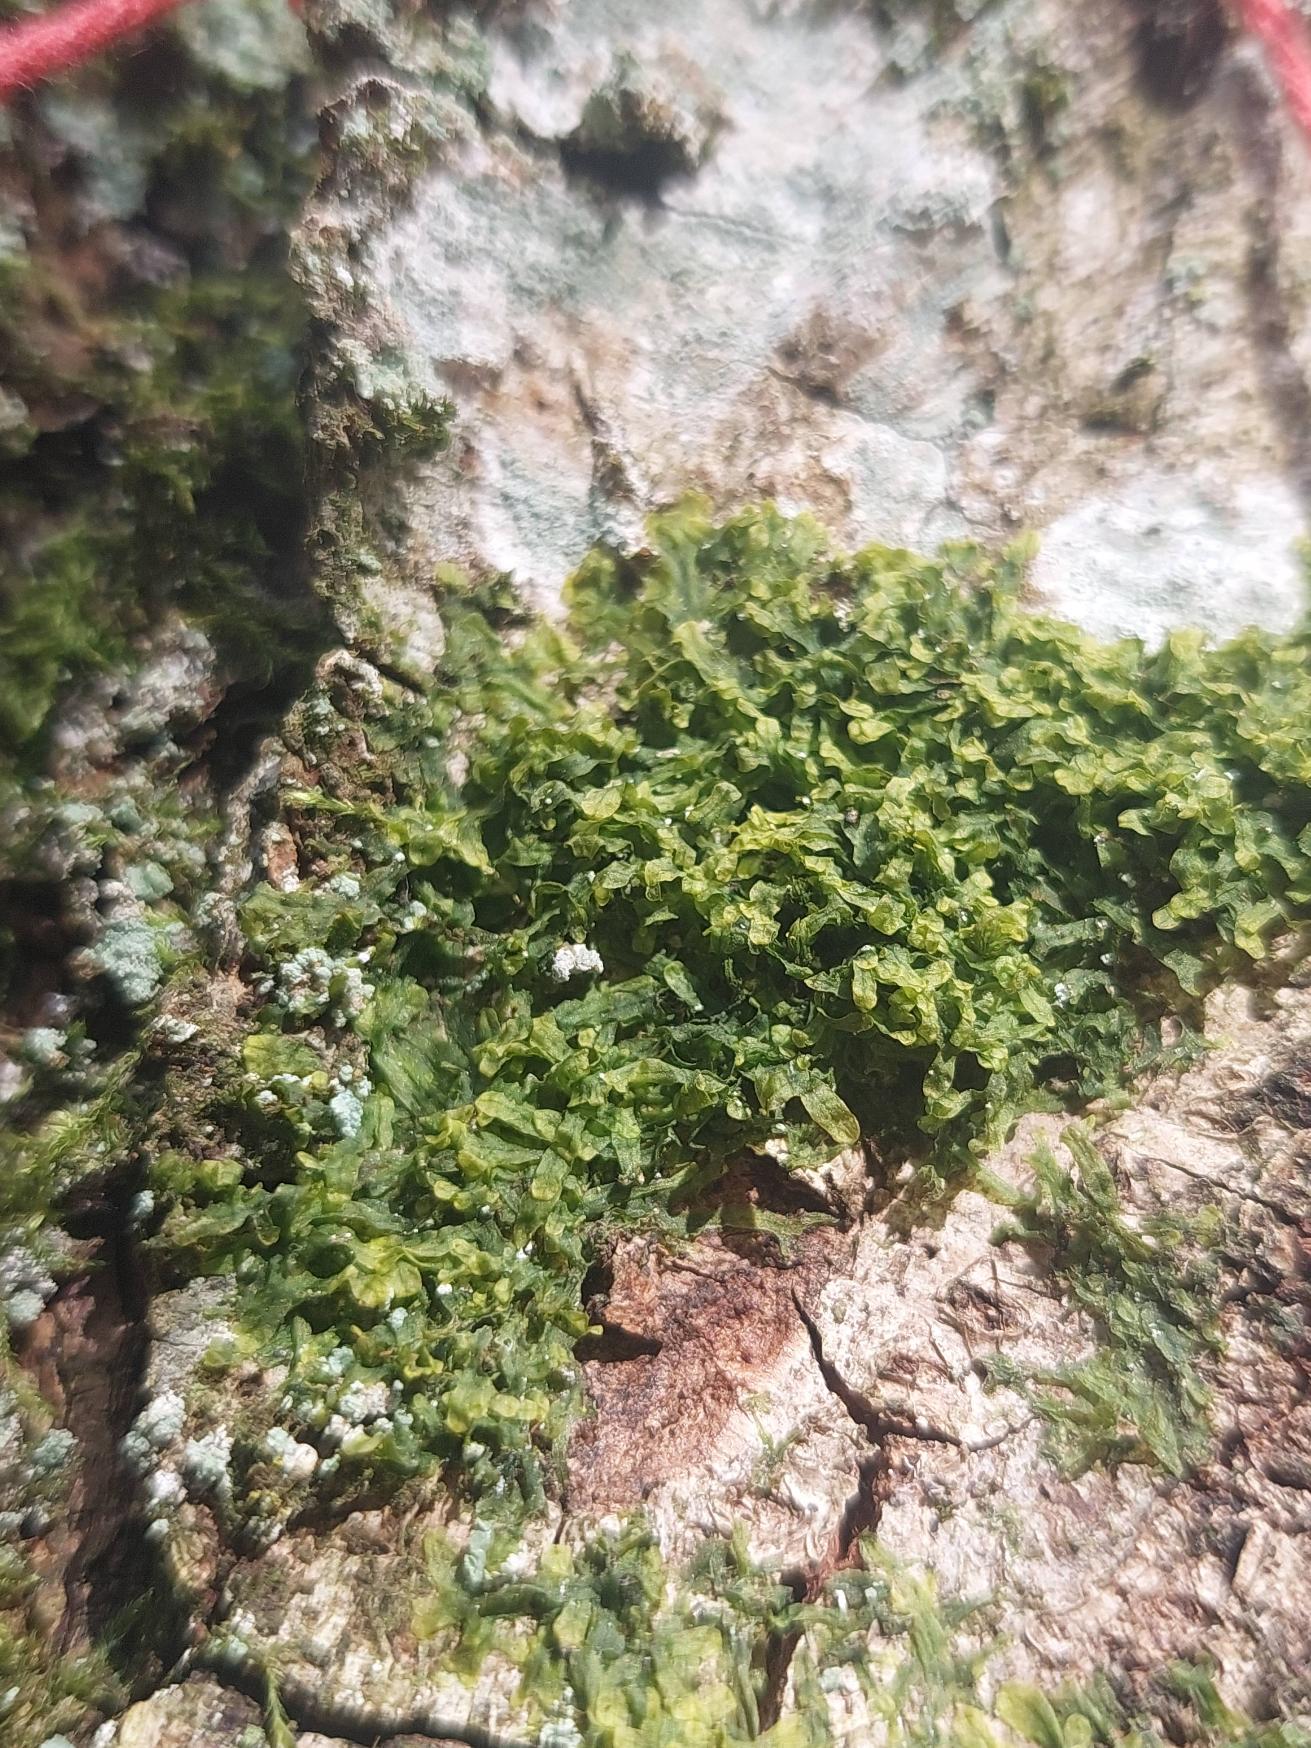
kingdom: Plantae
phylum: Marchantiophyta
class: Jungermanniopsida
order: Metzgeriales
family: Metzgeriaceae
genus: Metzgeria
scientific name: Metzgeria furcata
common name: Almindelig gaffelløv
